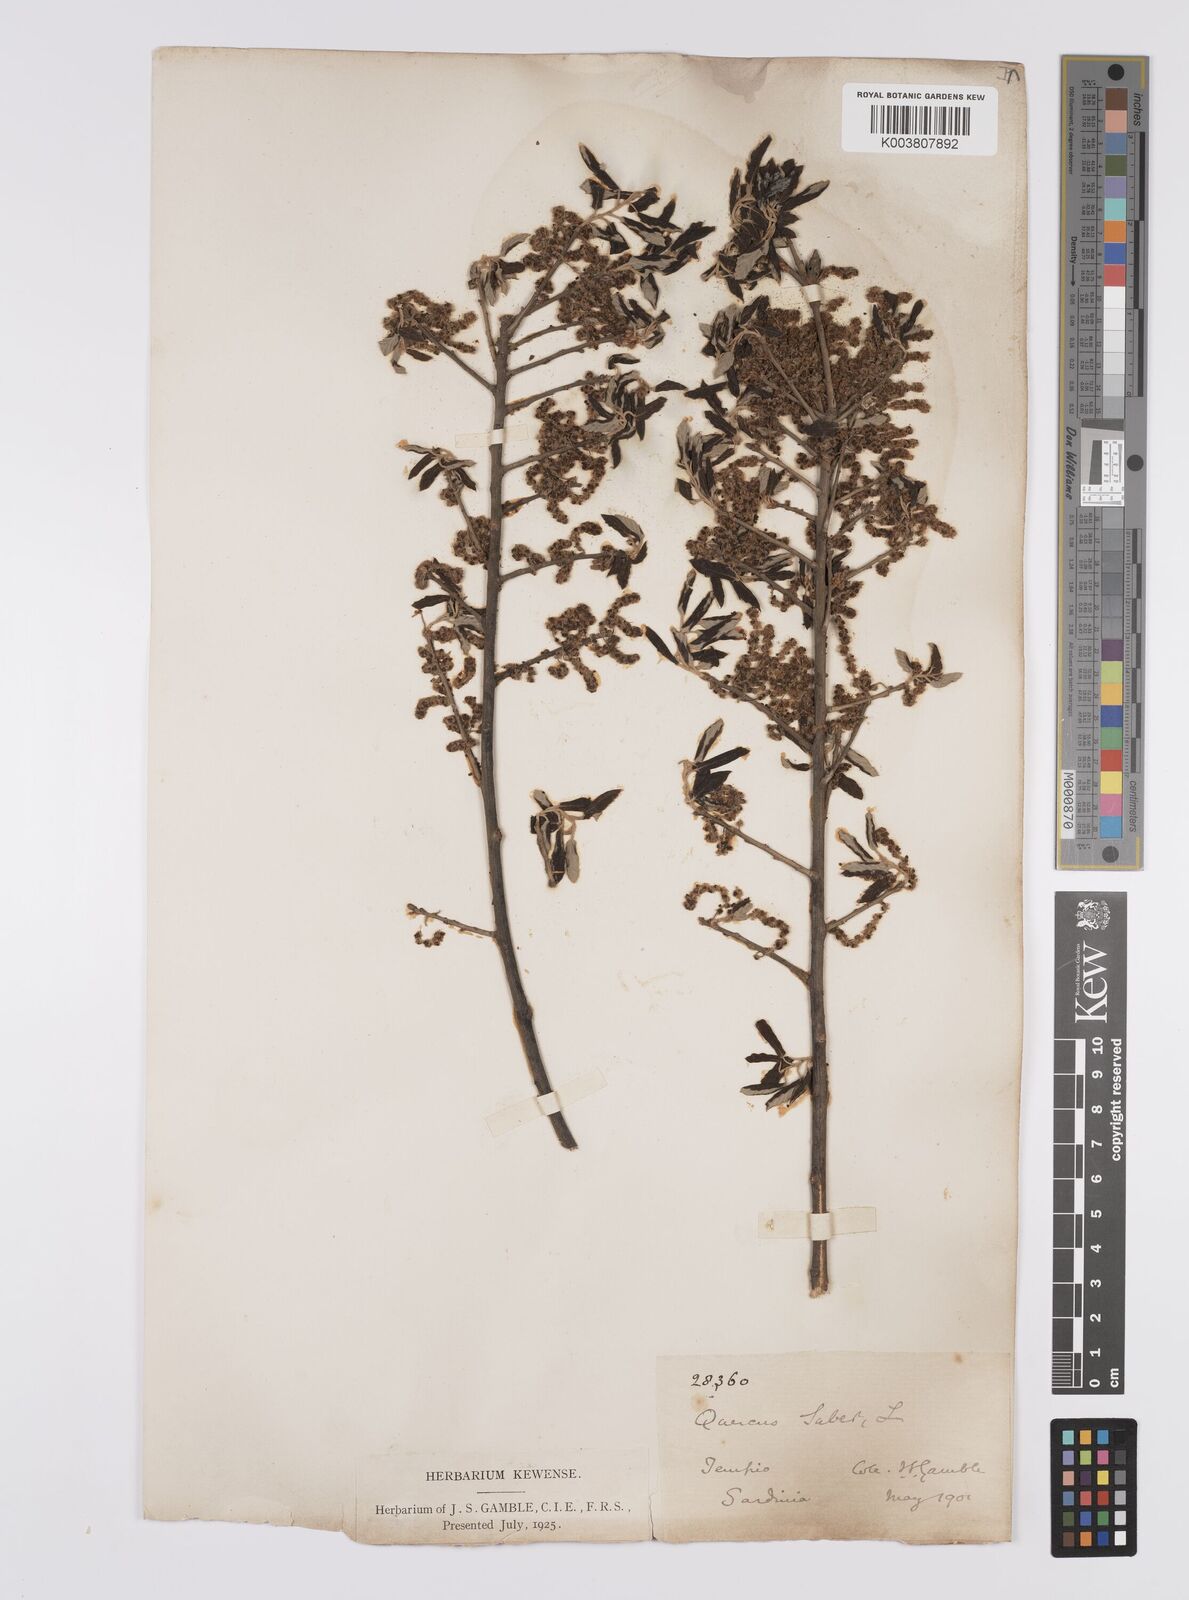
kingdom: Plantae
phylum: Tracheophyta
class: Magnoliopsida
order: Fagales
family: Fagaceae
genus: Quercus
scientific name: Quercus suber
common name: Cork oak
